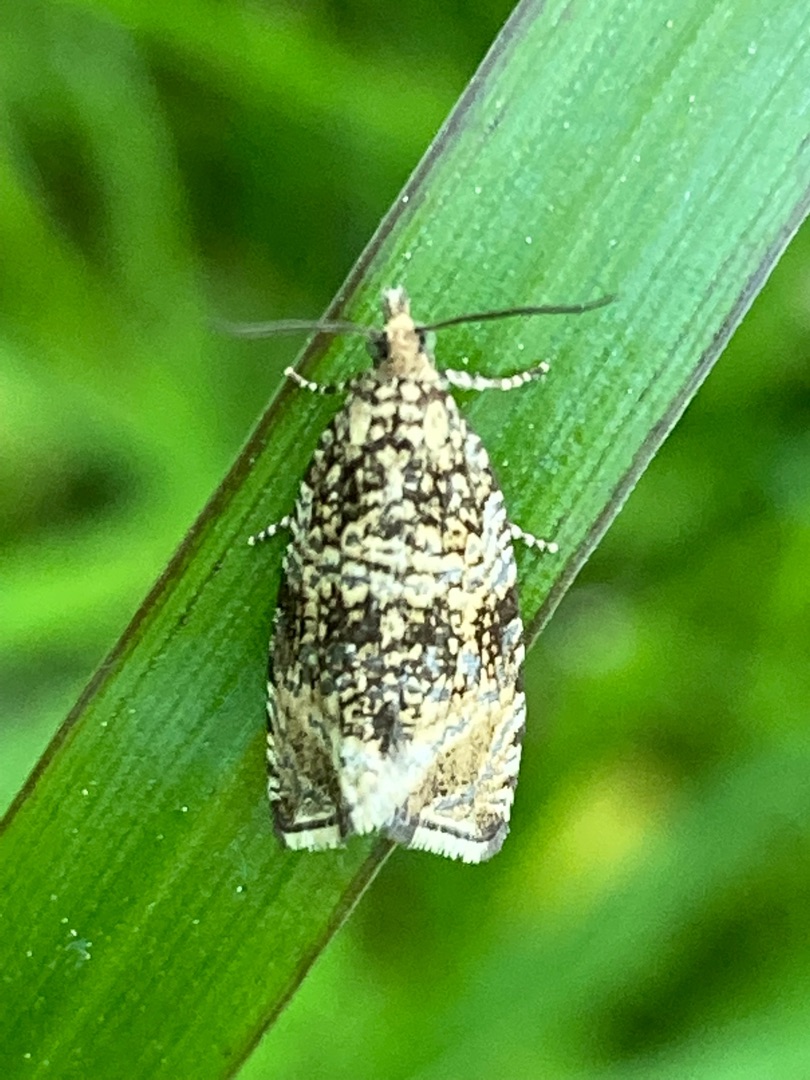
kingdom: Animalia
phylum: Arthropoda
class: Insecta
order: Lepidoptera
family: Tortricidae
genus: Syricoris
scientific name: Syricoris lacunana
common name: Rød jordbærvikler
